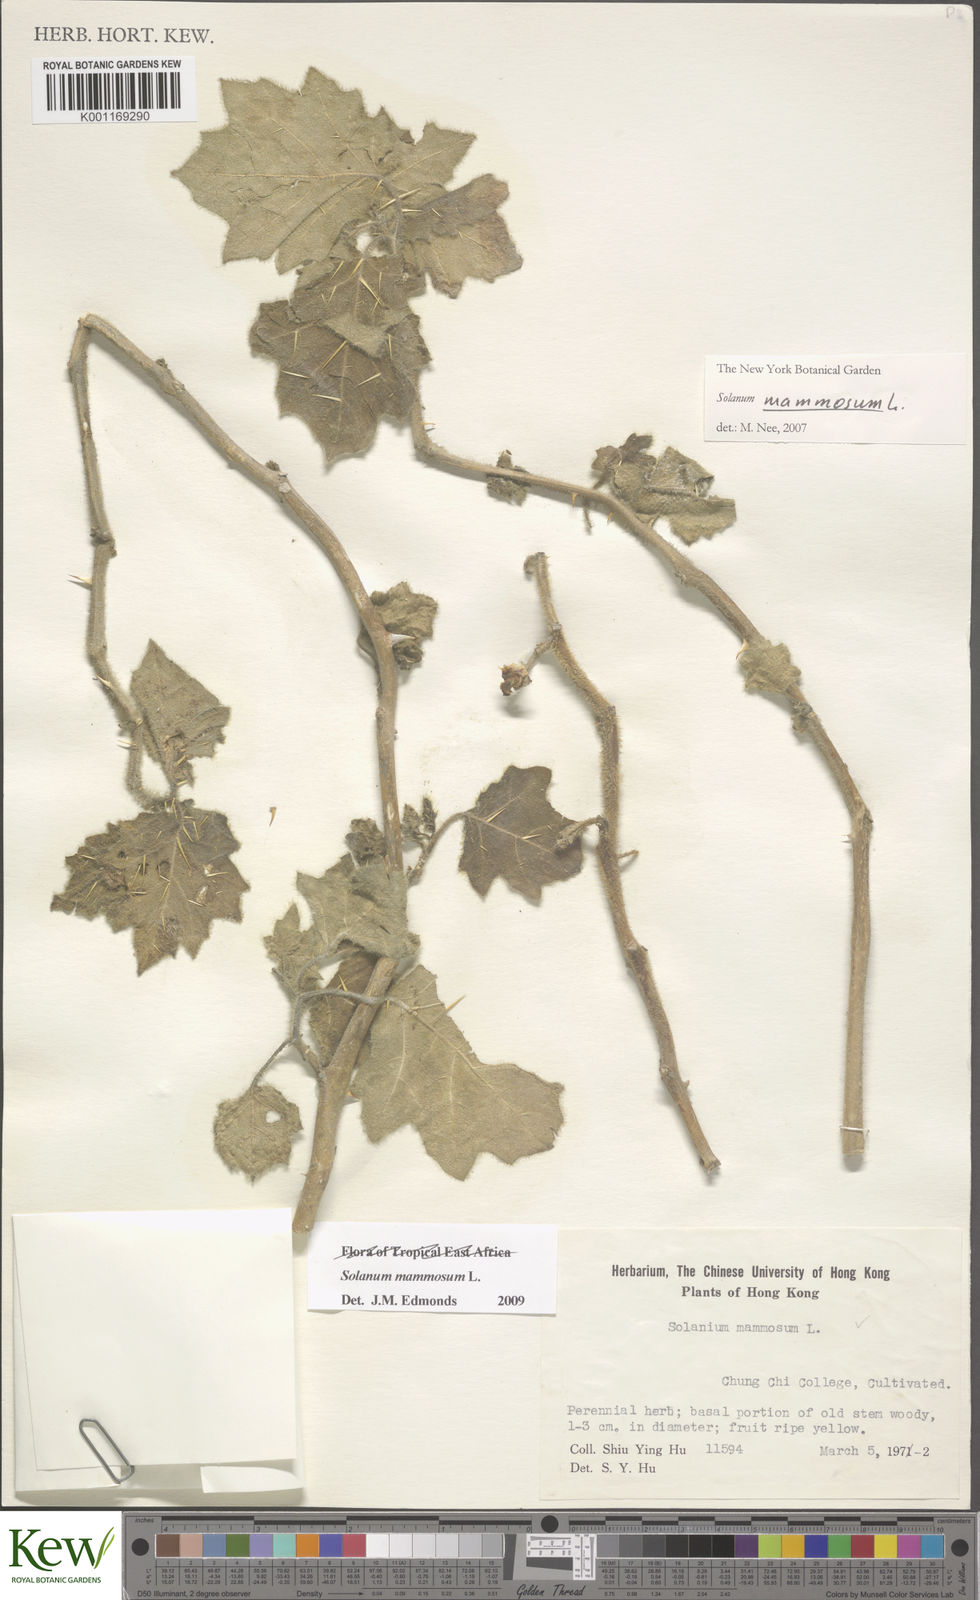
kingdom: Plantae
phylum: Tracheophyta
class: Magnoliopsida
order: Solanales
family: Solanaceae
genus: Solanum
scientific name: Solanum mammosum
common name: Nipple fruit
